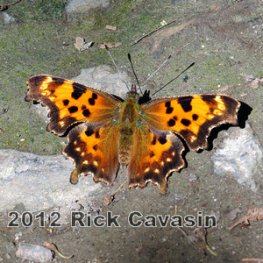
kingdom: Animalia
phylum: Arthropoda
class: Insecta
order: Lepidoptera
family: Nymphalidae
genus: Polygonia
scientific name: Polygonia faunus
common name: Green Comma
